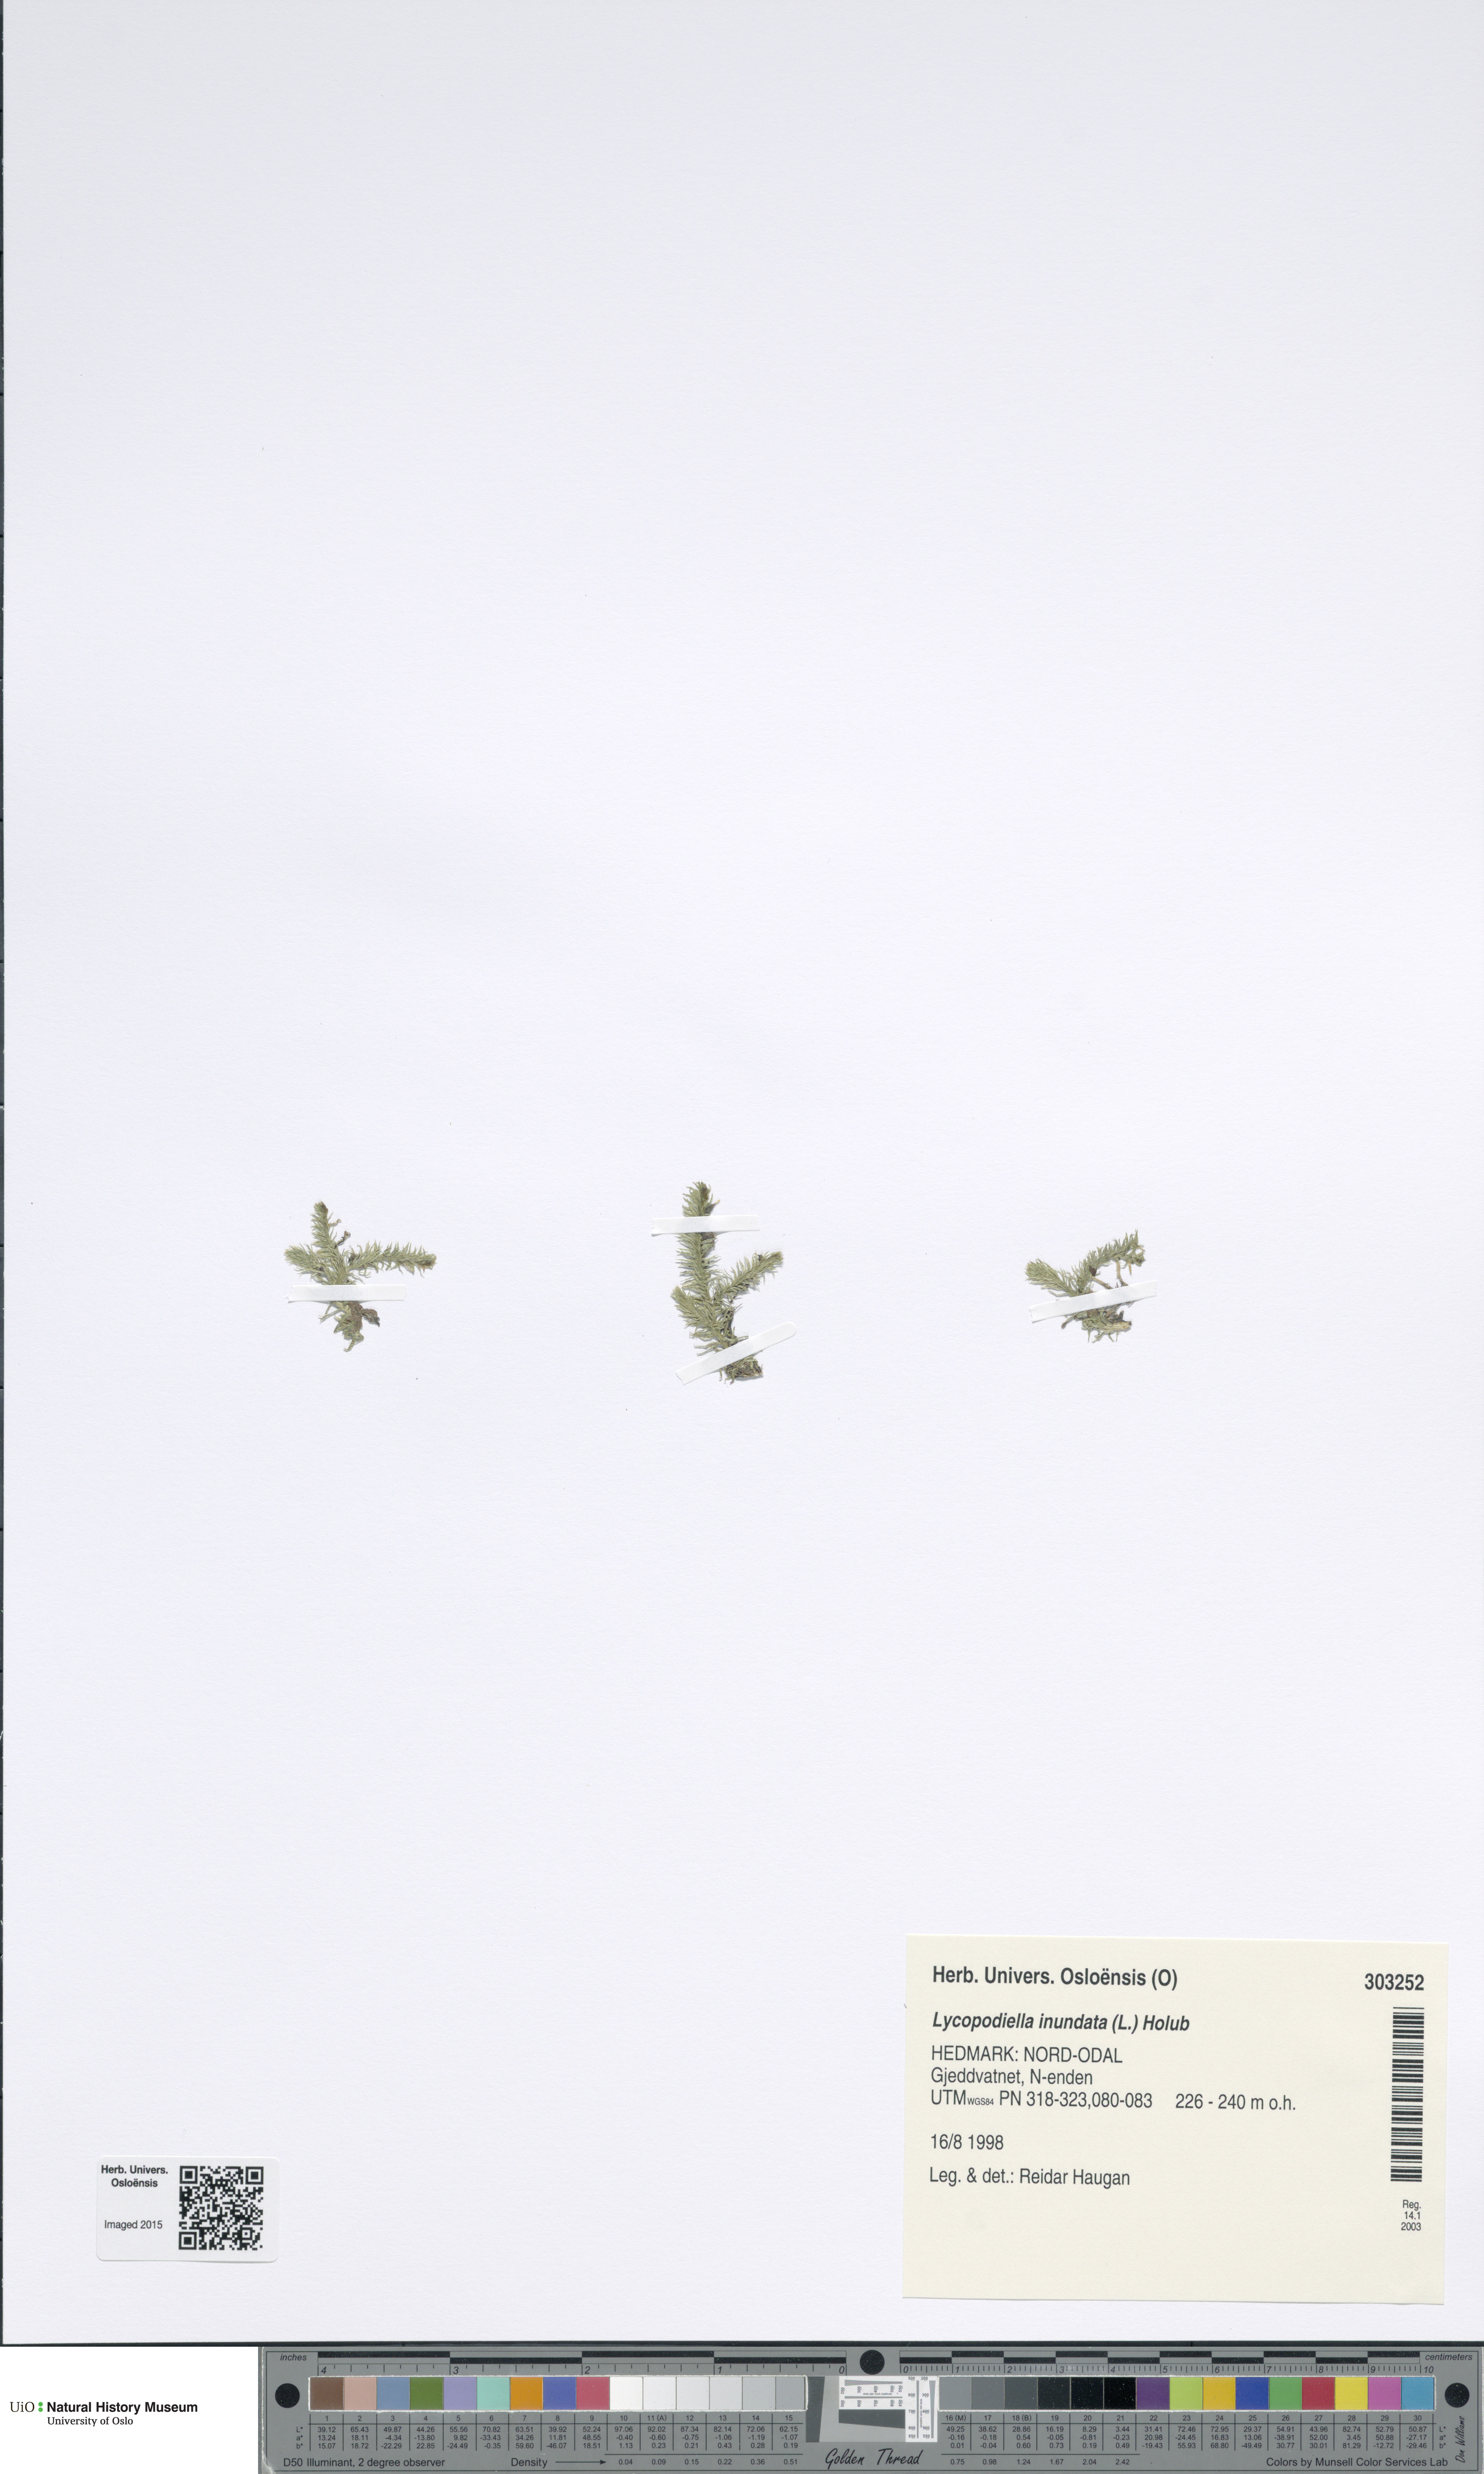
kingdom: Plantae
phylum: Tracheophyta
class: Lycopodiopsida
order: Lycopodiales
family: Lycopodiaceae
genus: Lycopodiella
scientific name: Lycopodiella inundata
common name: Marsh clubmoss
